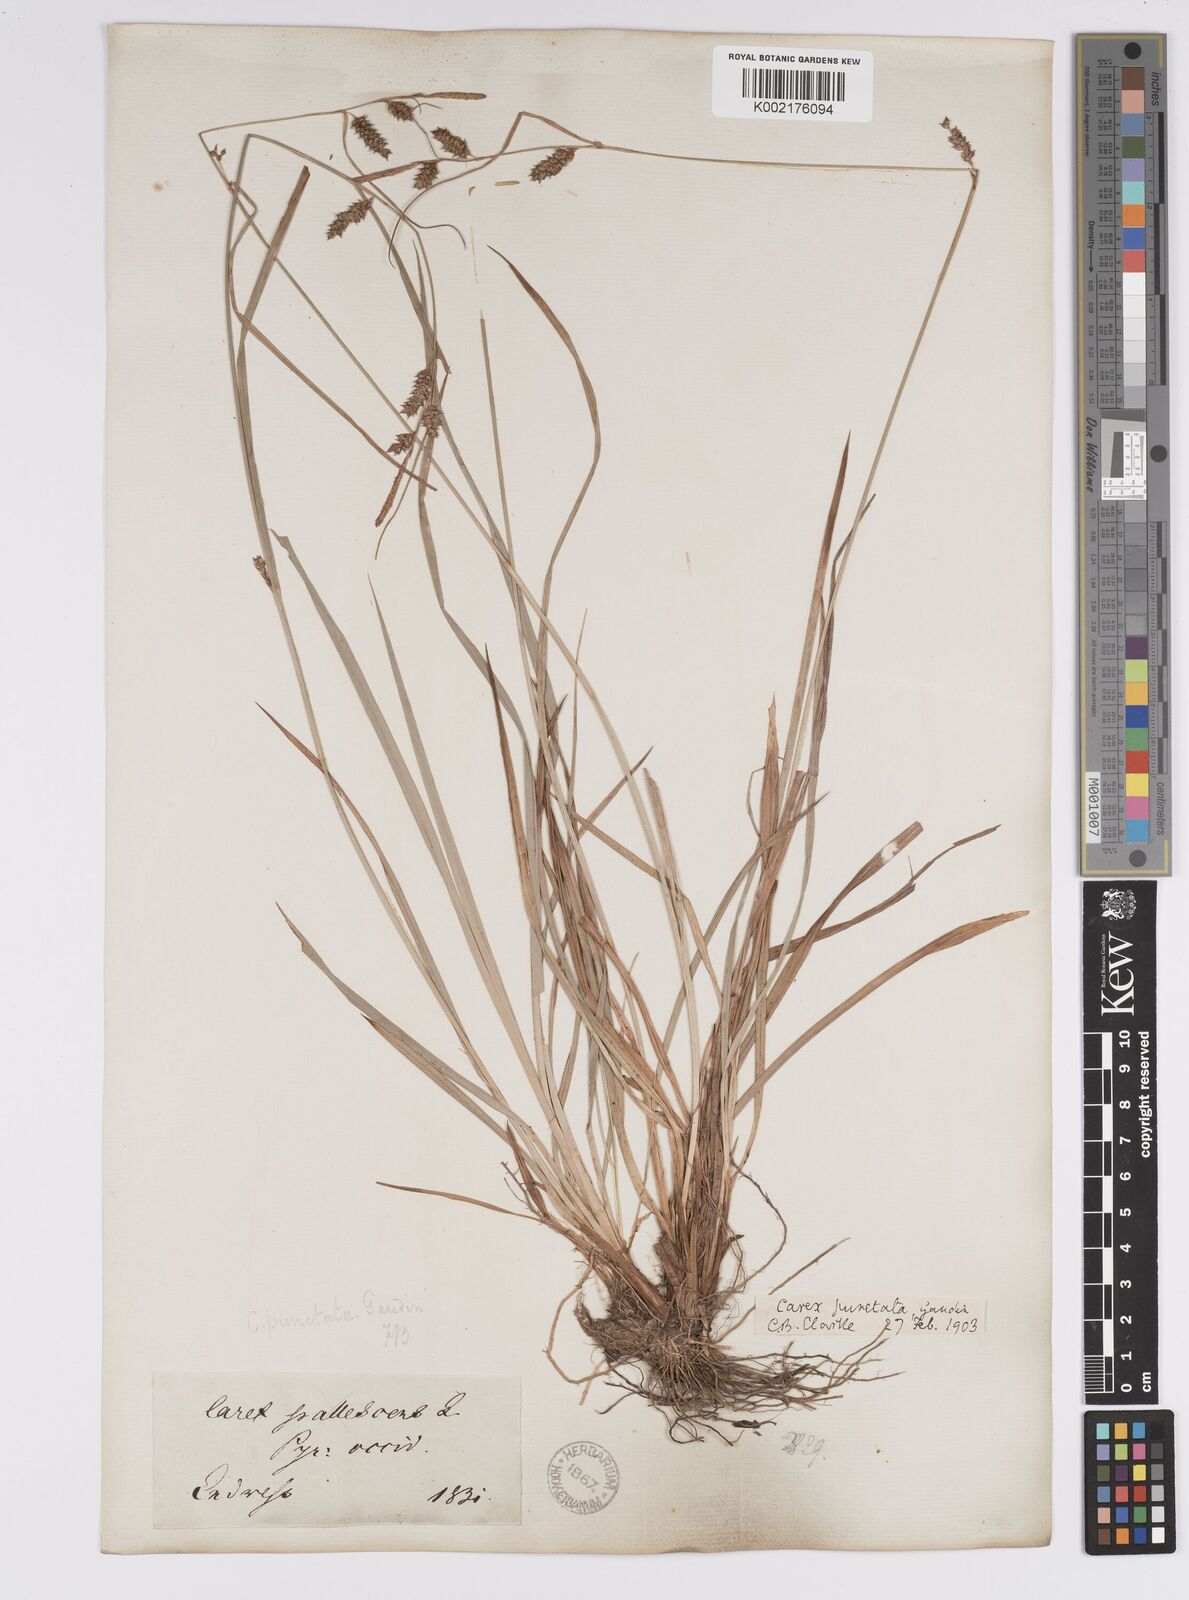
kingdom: Plantae
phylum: Tracheophyta
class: Liliopsida
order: Poales
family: Cyperaceae
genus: Carex
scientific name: Carex punctata
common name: Dotted sedge
